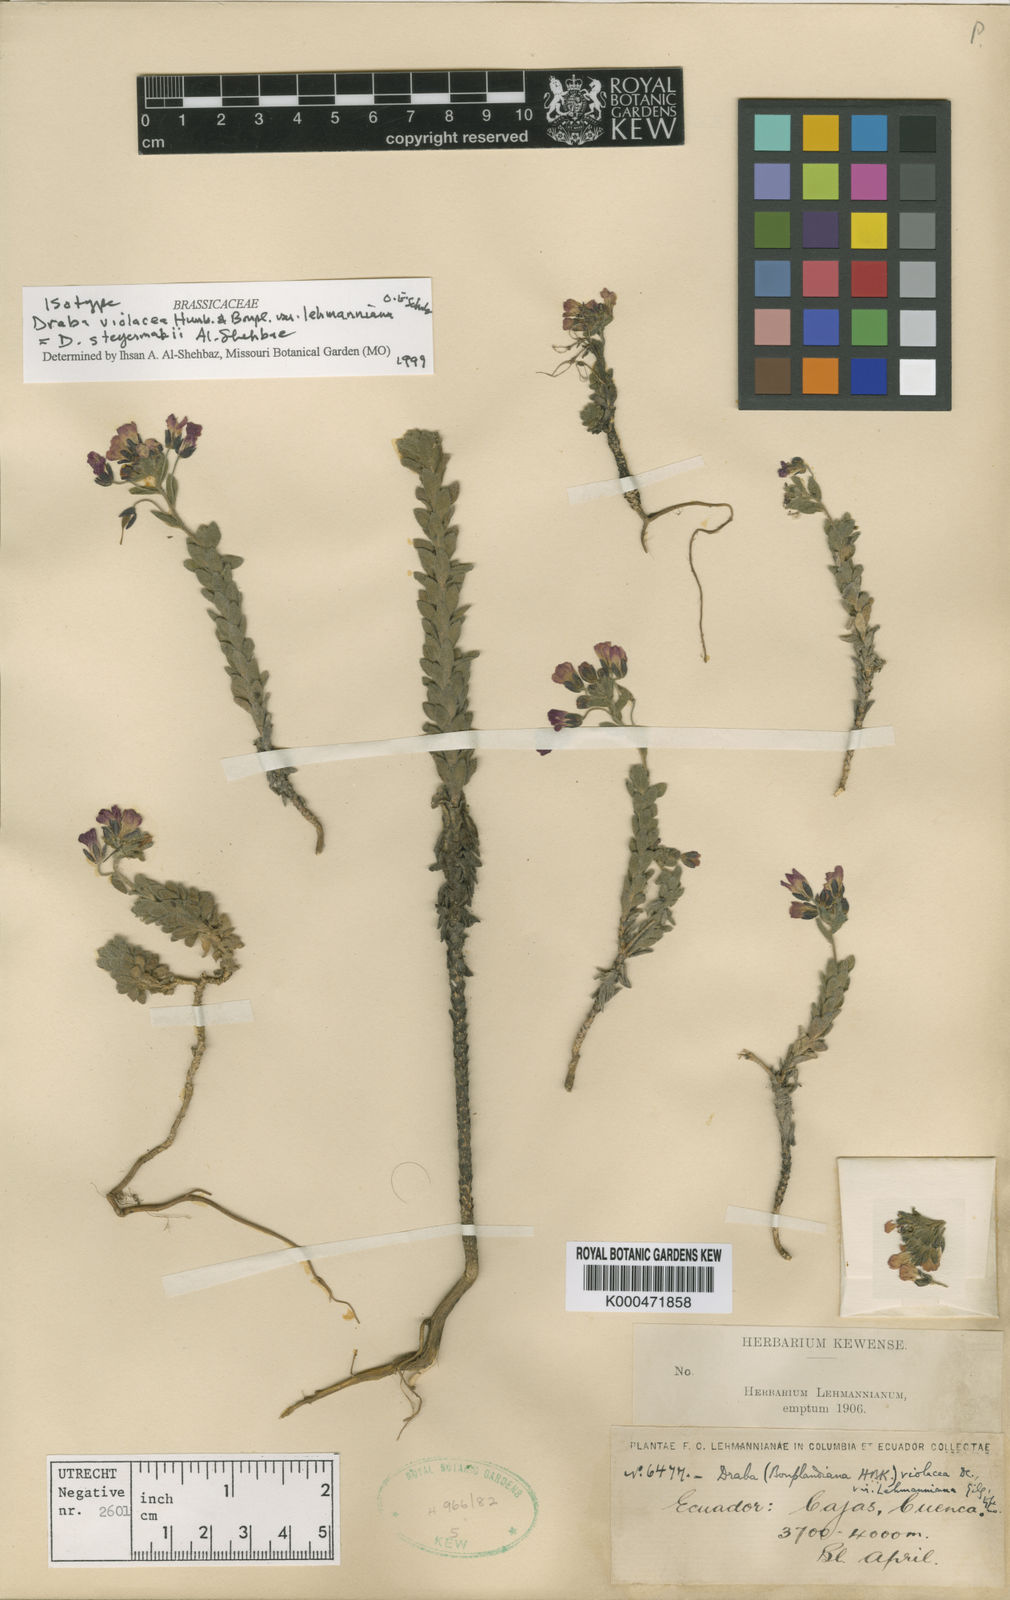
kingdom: Plantae
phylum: Tracheophyta
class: Magnoliopsida
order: Brassicales
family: Brassicaceae
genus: Draba
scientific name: Draba steyermarkii
